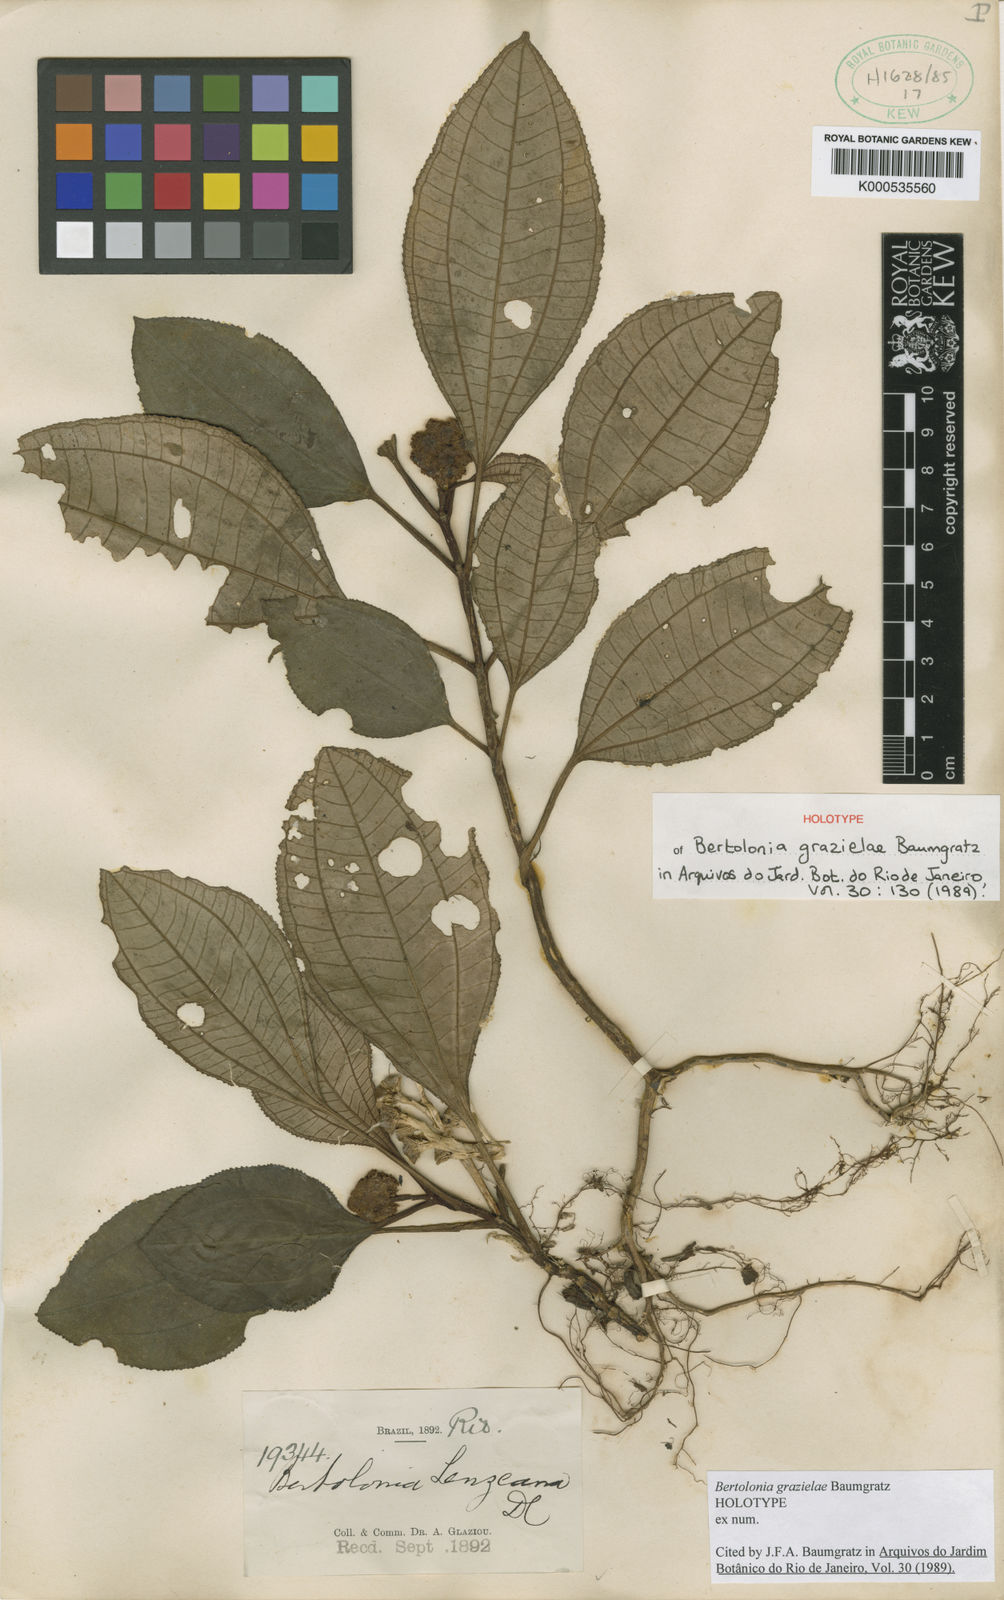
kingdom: Plantae
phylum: Tracheophyta
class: Magnoliopsida
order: Myrtales
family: Melastomataceae
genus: Bertolonia
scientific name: Bertolonia grazielae
